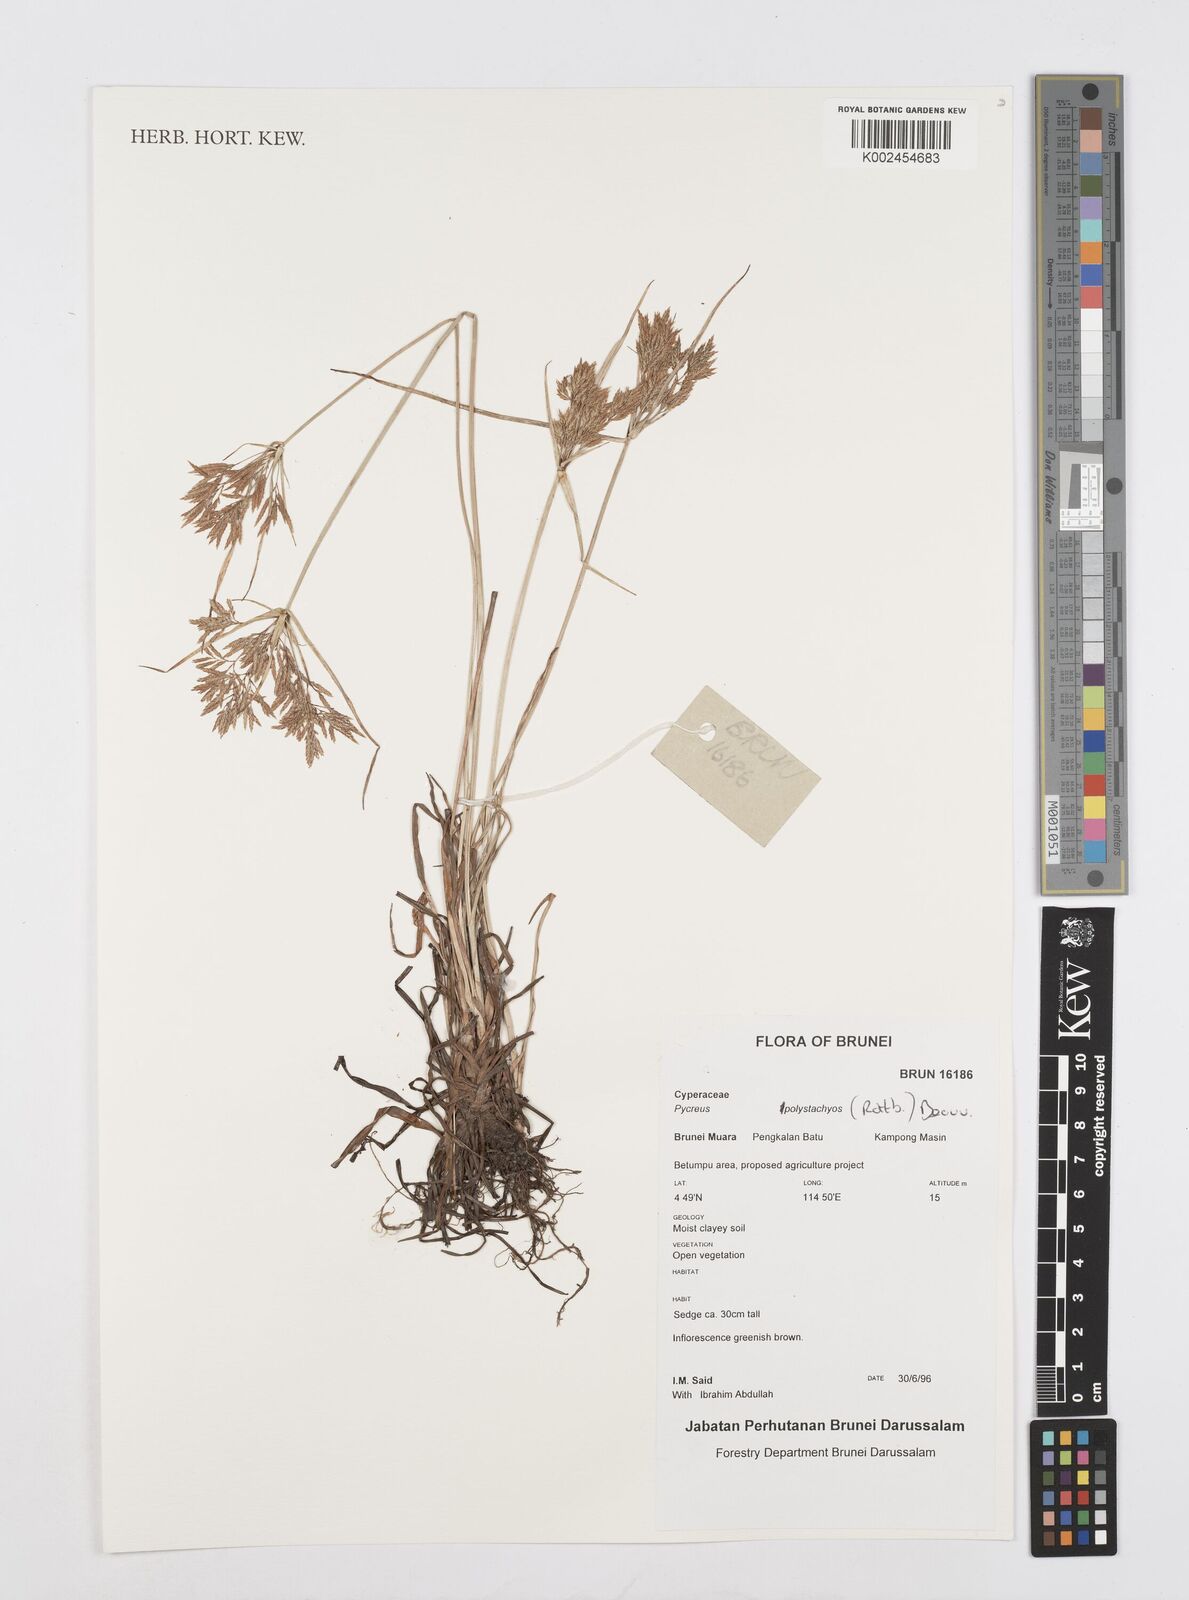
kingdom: Plantae
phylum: Tracheophyta
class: Liliopsida
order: Poales
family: Cyperaceae
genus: Cyperus
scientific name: Cyperus polystachyos
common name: Bunchy flat sedge
